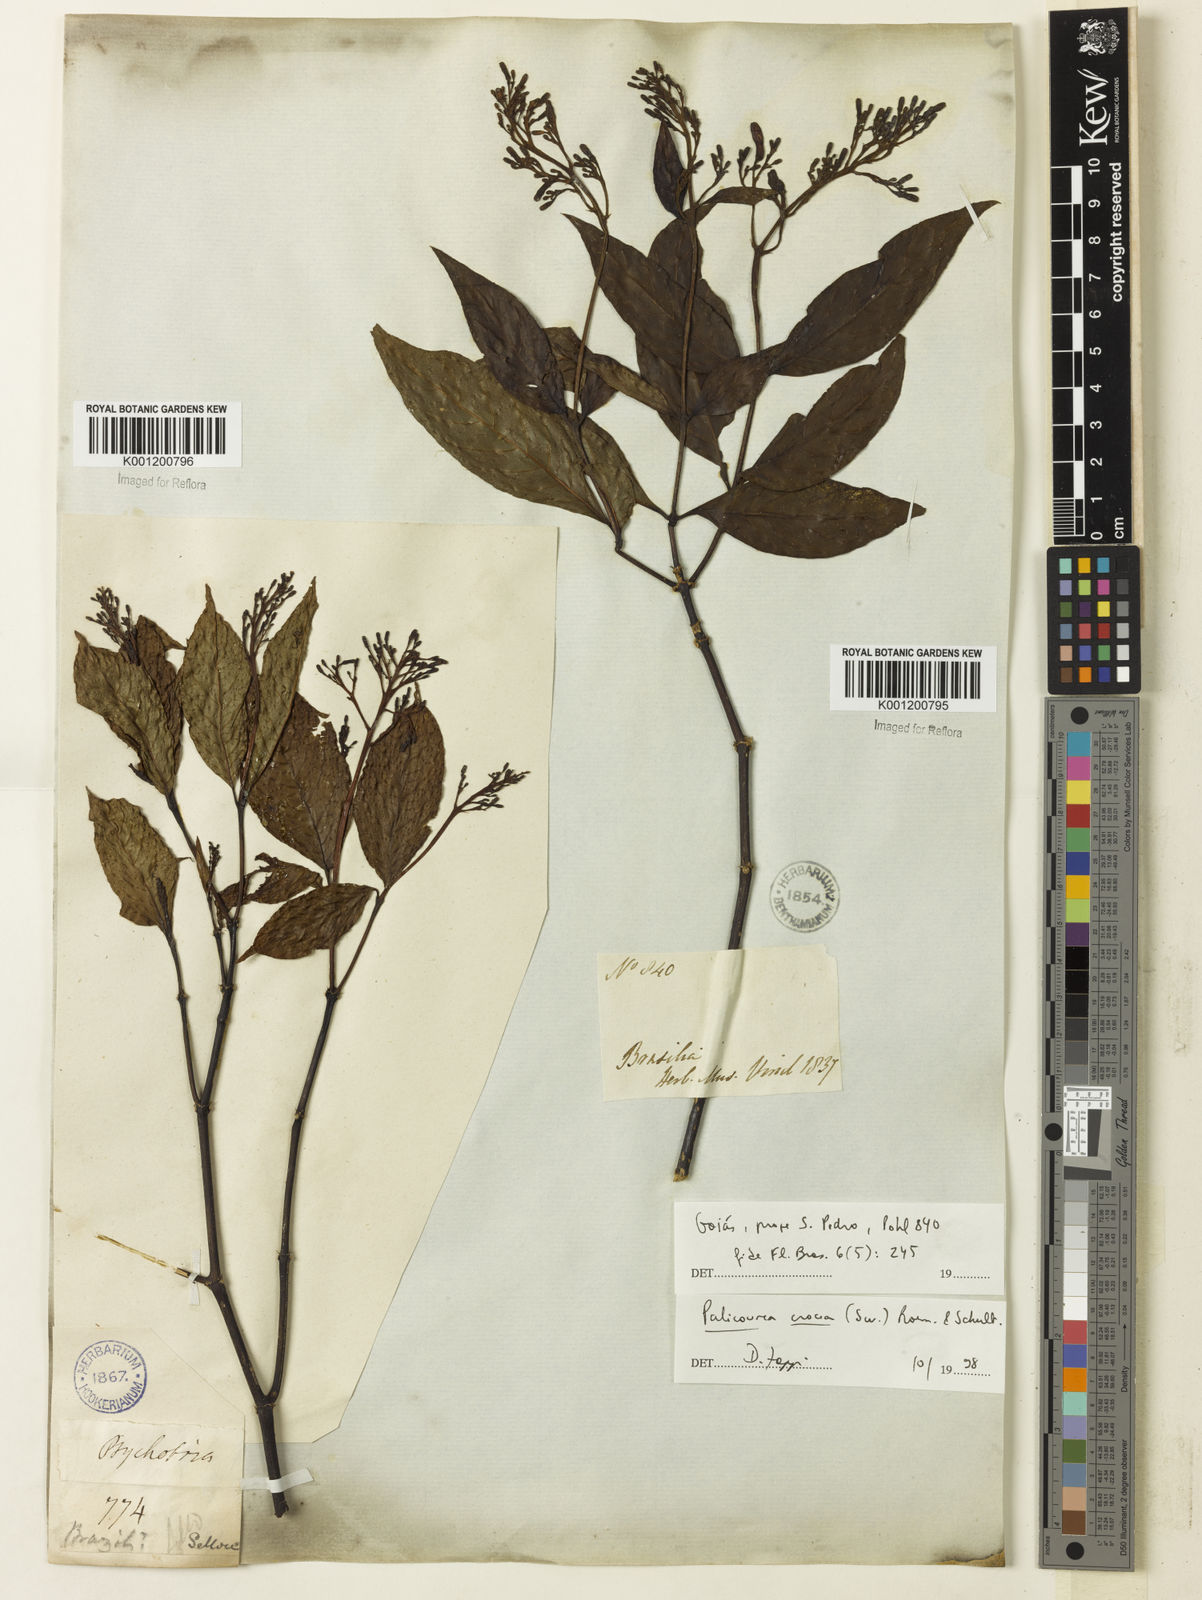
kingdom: Plantae
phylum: Tracheophyta
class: Magnoliopsida
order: Gentianales
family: Rubiaceae
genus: Palicourea
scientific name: Palicourea crocea
